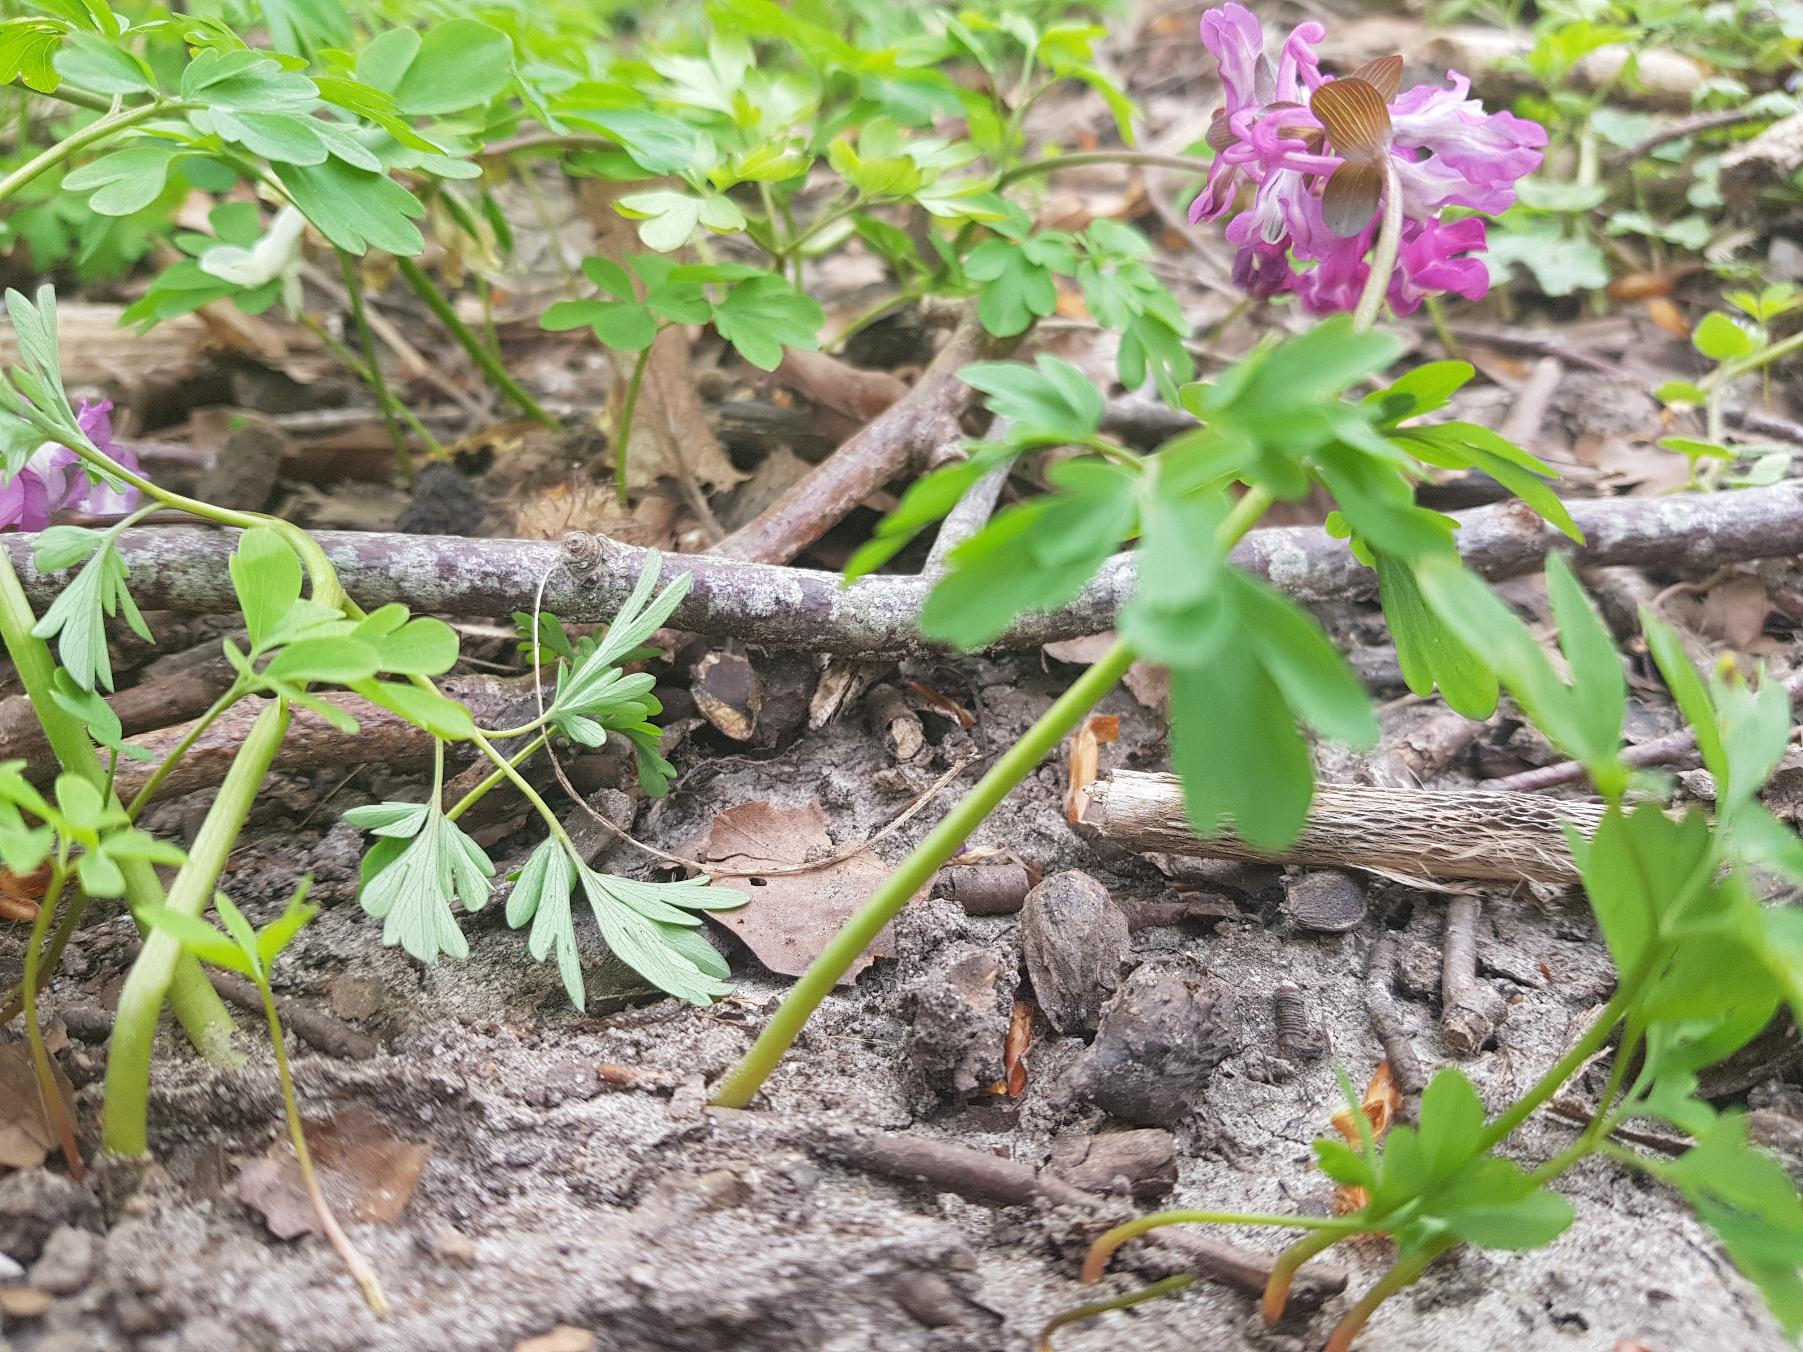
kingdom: Plantae
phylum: Tracheophyta
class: Magnoliopsida
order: Ranunculales
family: Papaveraceae
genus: Corydalis
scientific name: Corydalis cava
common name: Hulrodet lærkespore
